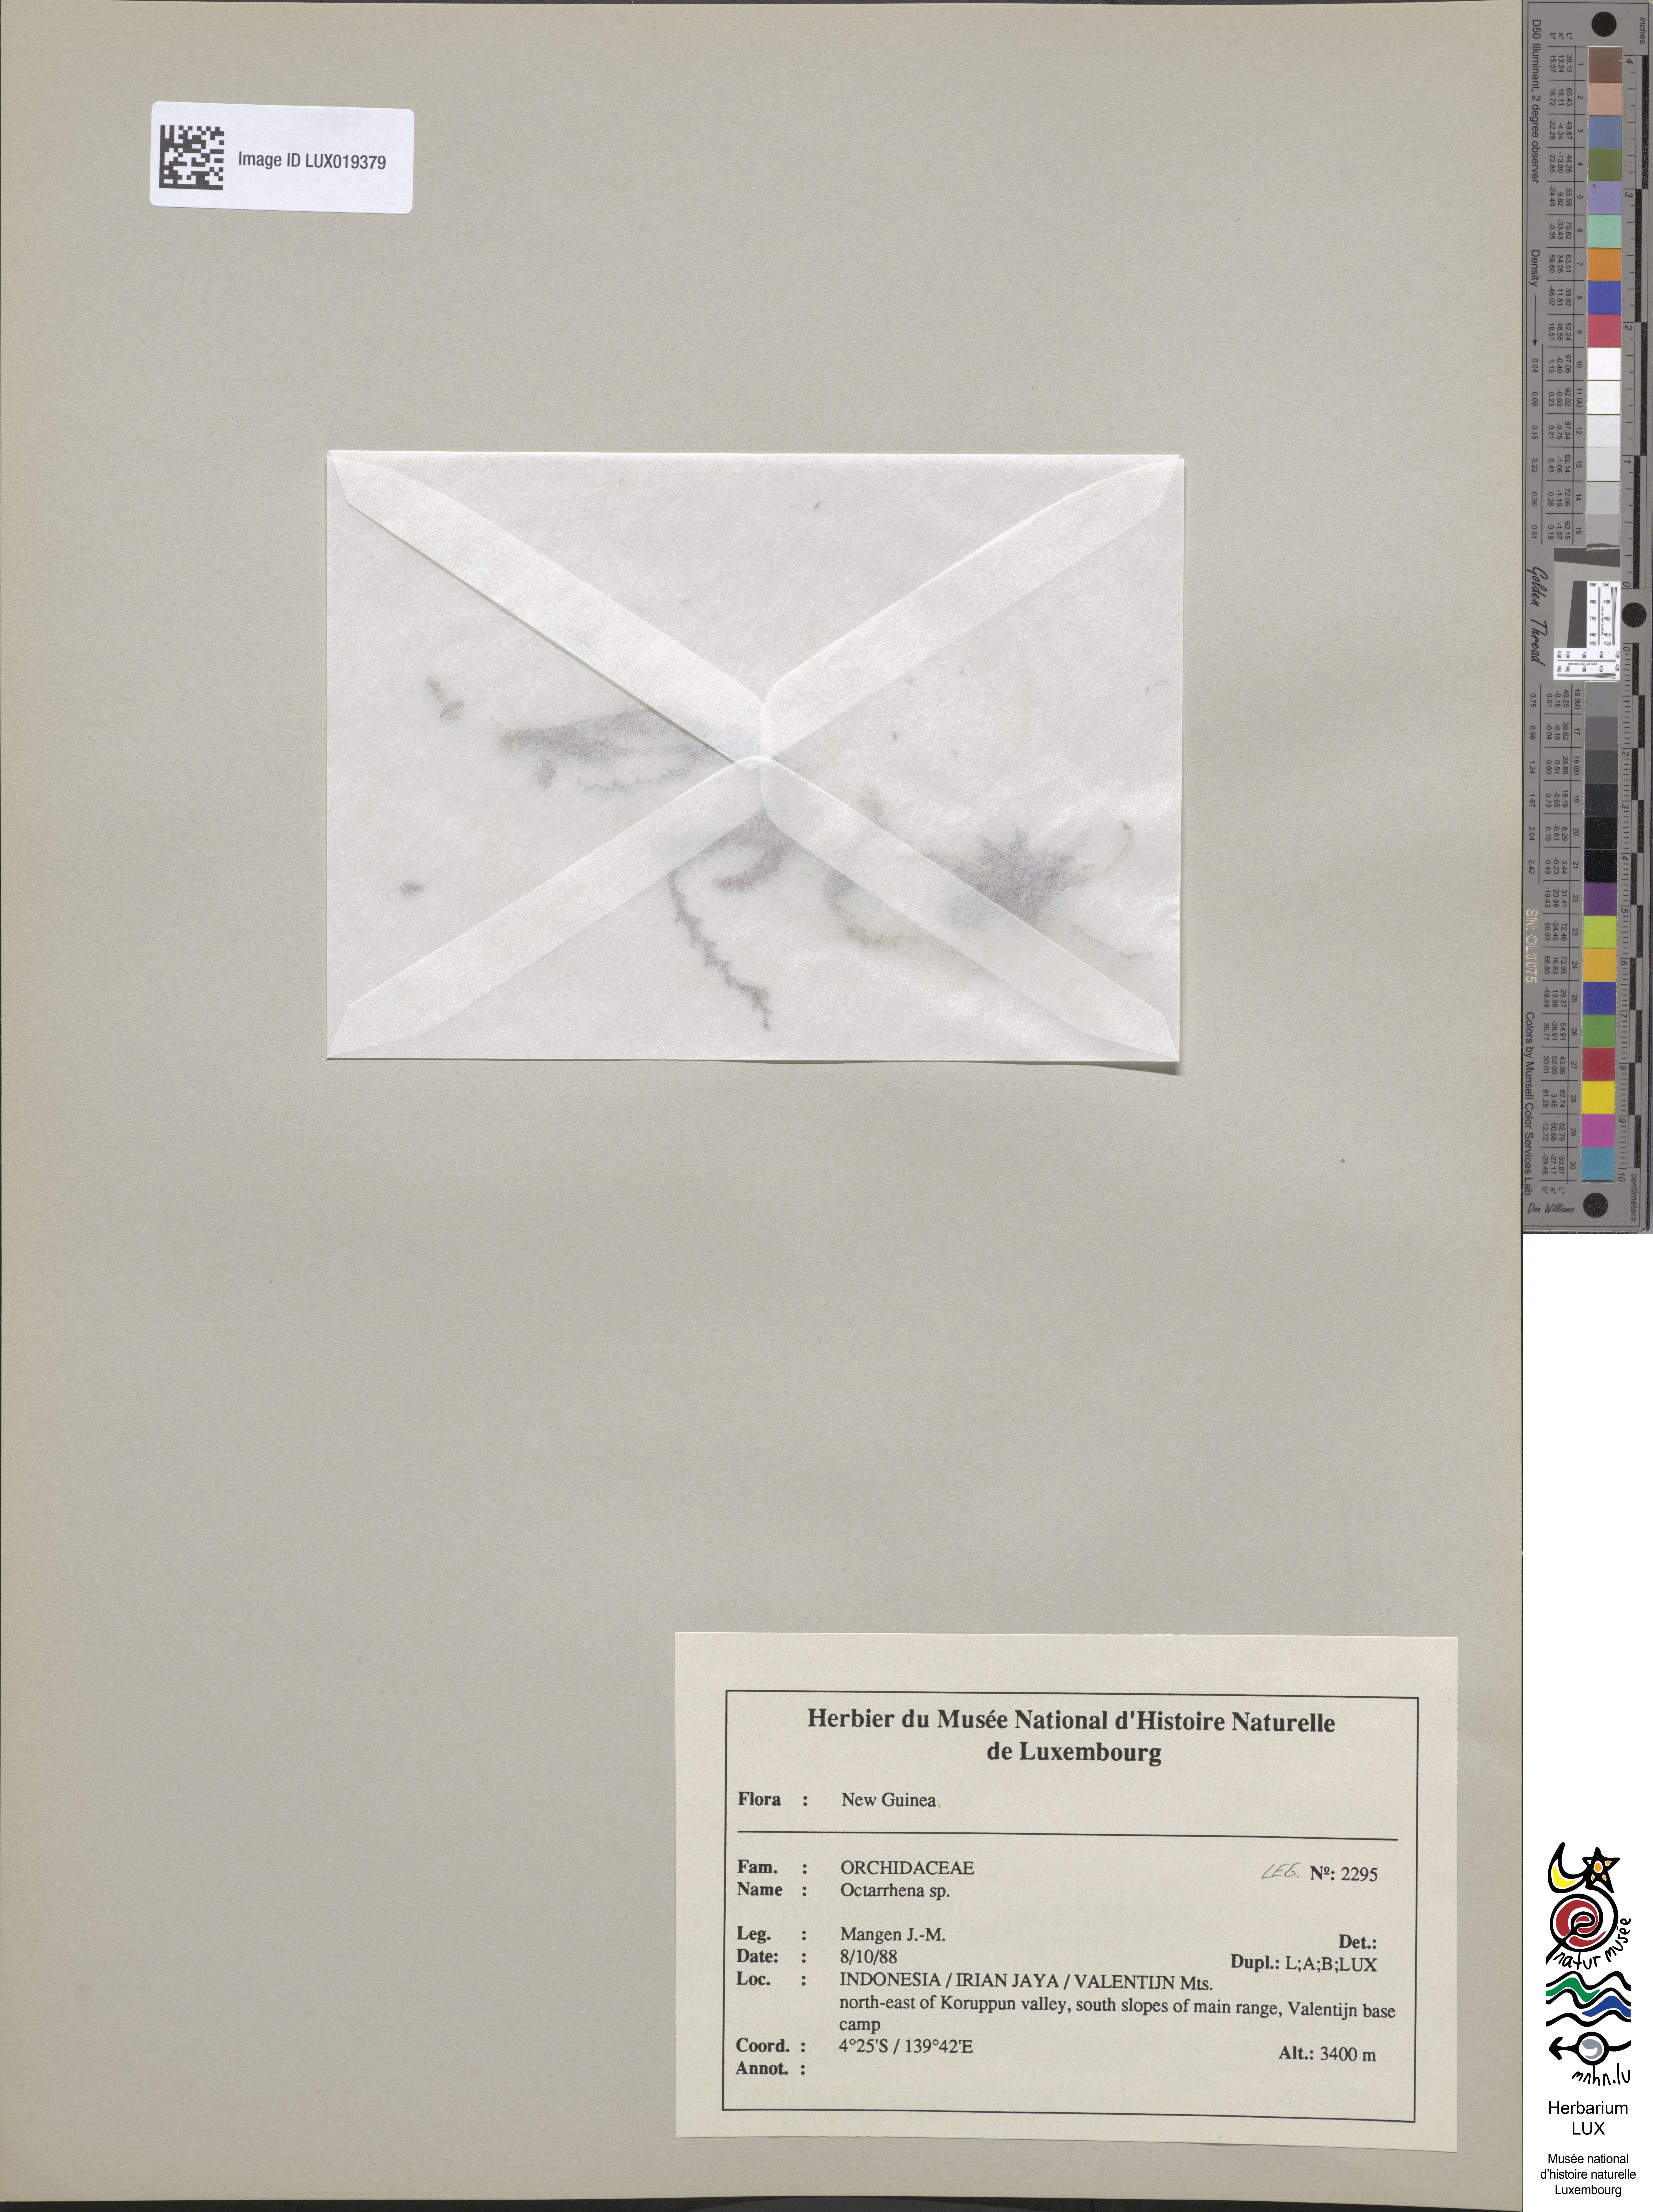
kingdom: Plantae
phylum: Tracheophyta
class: Liliopsida
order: Asparagales
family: Orchidaceae
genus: Octarrhena
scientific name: Octarrhena
